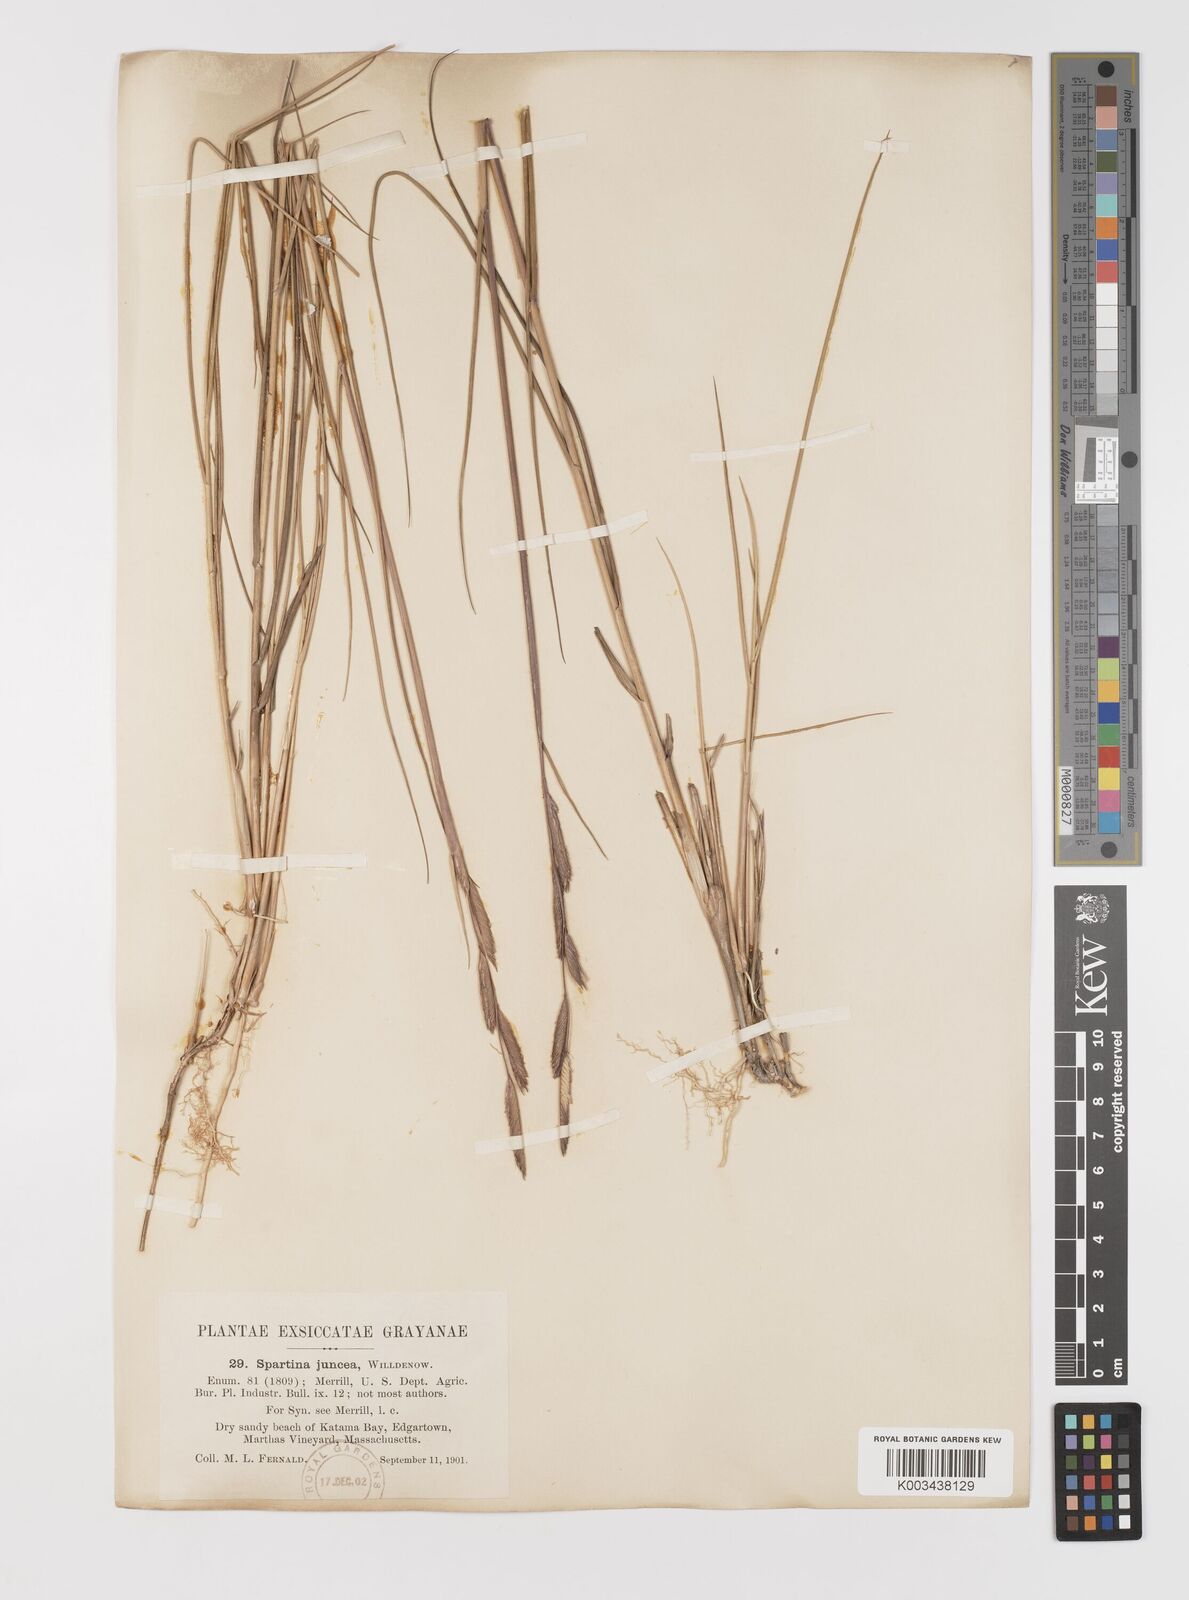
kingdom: Plantae
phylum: Tracheophyta
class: Liliopsida
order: Poales
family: Poaceae
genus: Sporobolus
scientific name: Sporobolus pumilus
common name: Highwater grass
